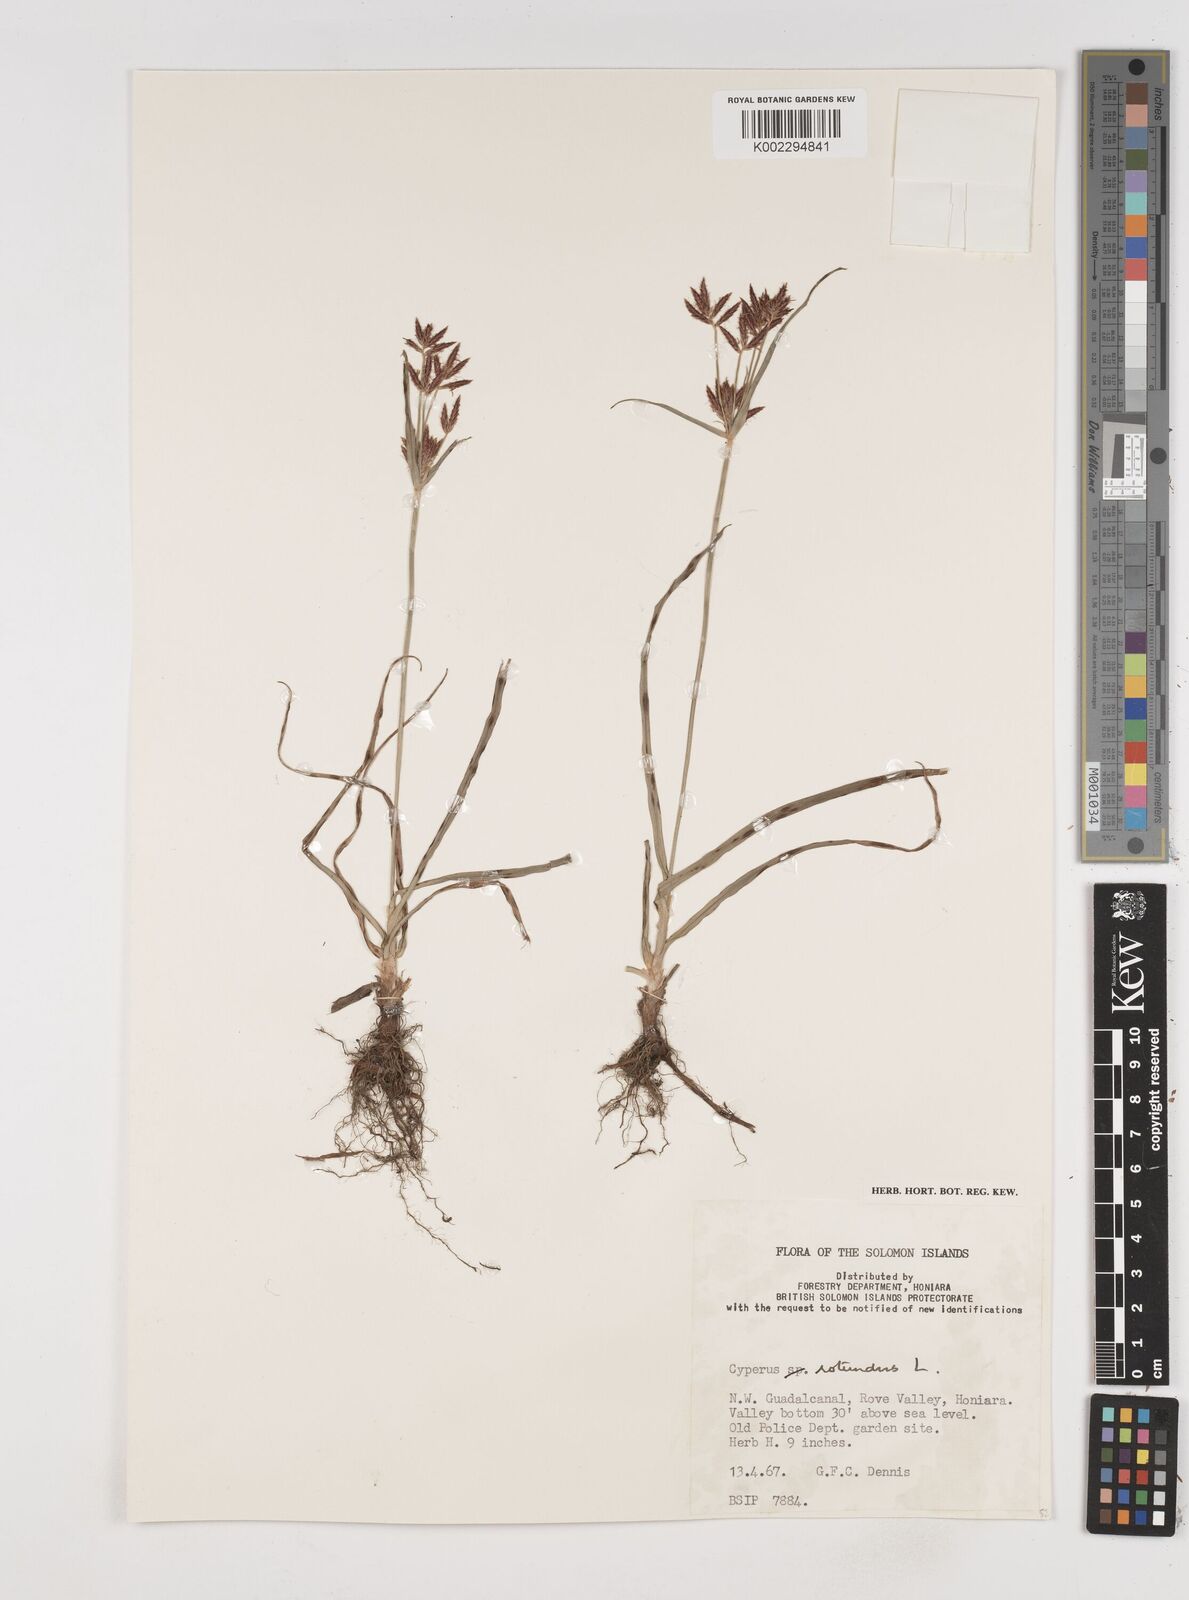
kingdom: Plantae
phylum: Tracheophyta
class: Liliopsida
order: Poales
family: Cyperaceae
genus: Cyperus
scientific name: Cyperus rotundus
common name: Nutgrass
